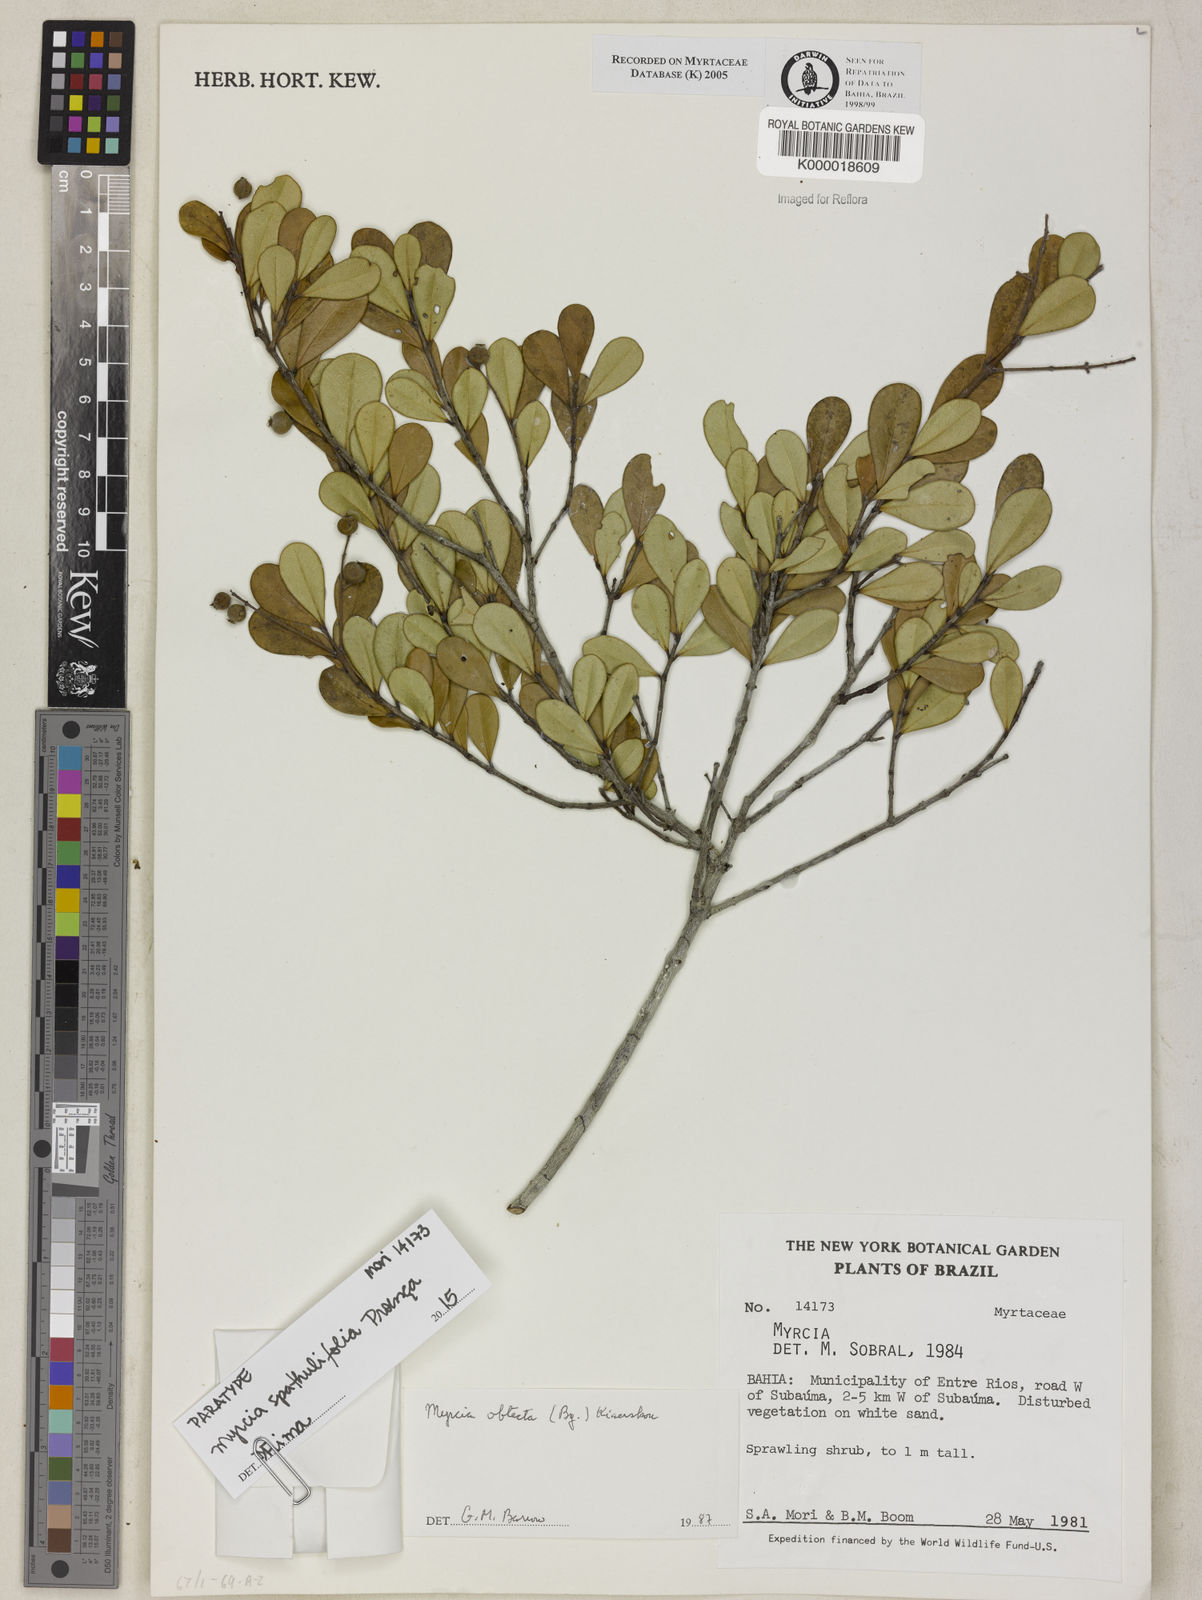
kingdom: Plantae
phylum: Tracheophyta
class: Magnoliopsida
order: Myrtales
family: Myrtaceae
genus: Myrcia
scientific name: Myrcia guianensis
